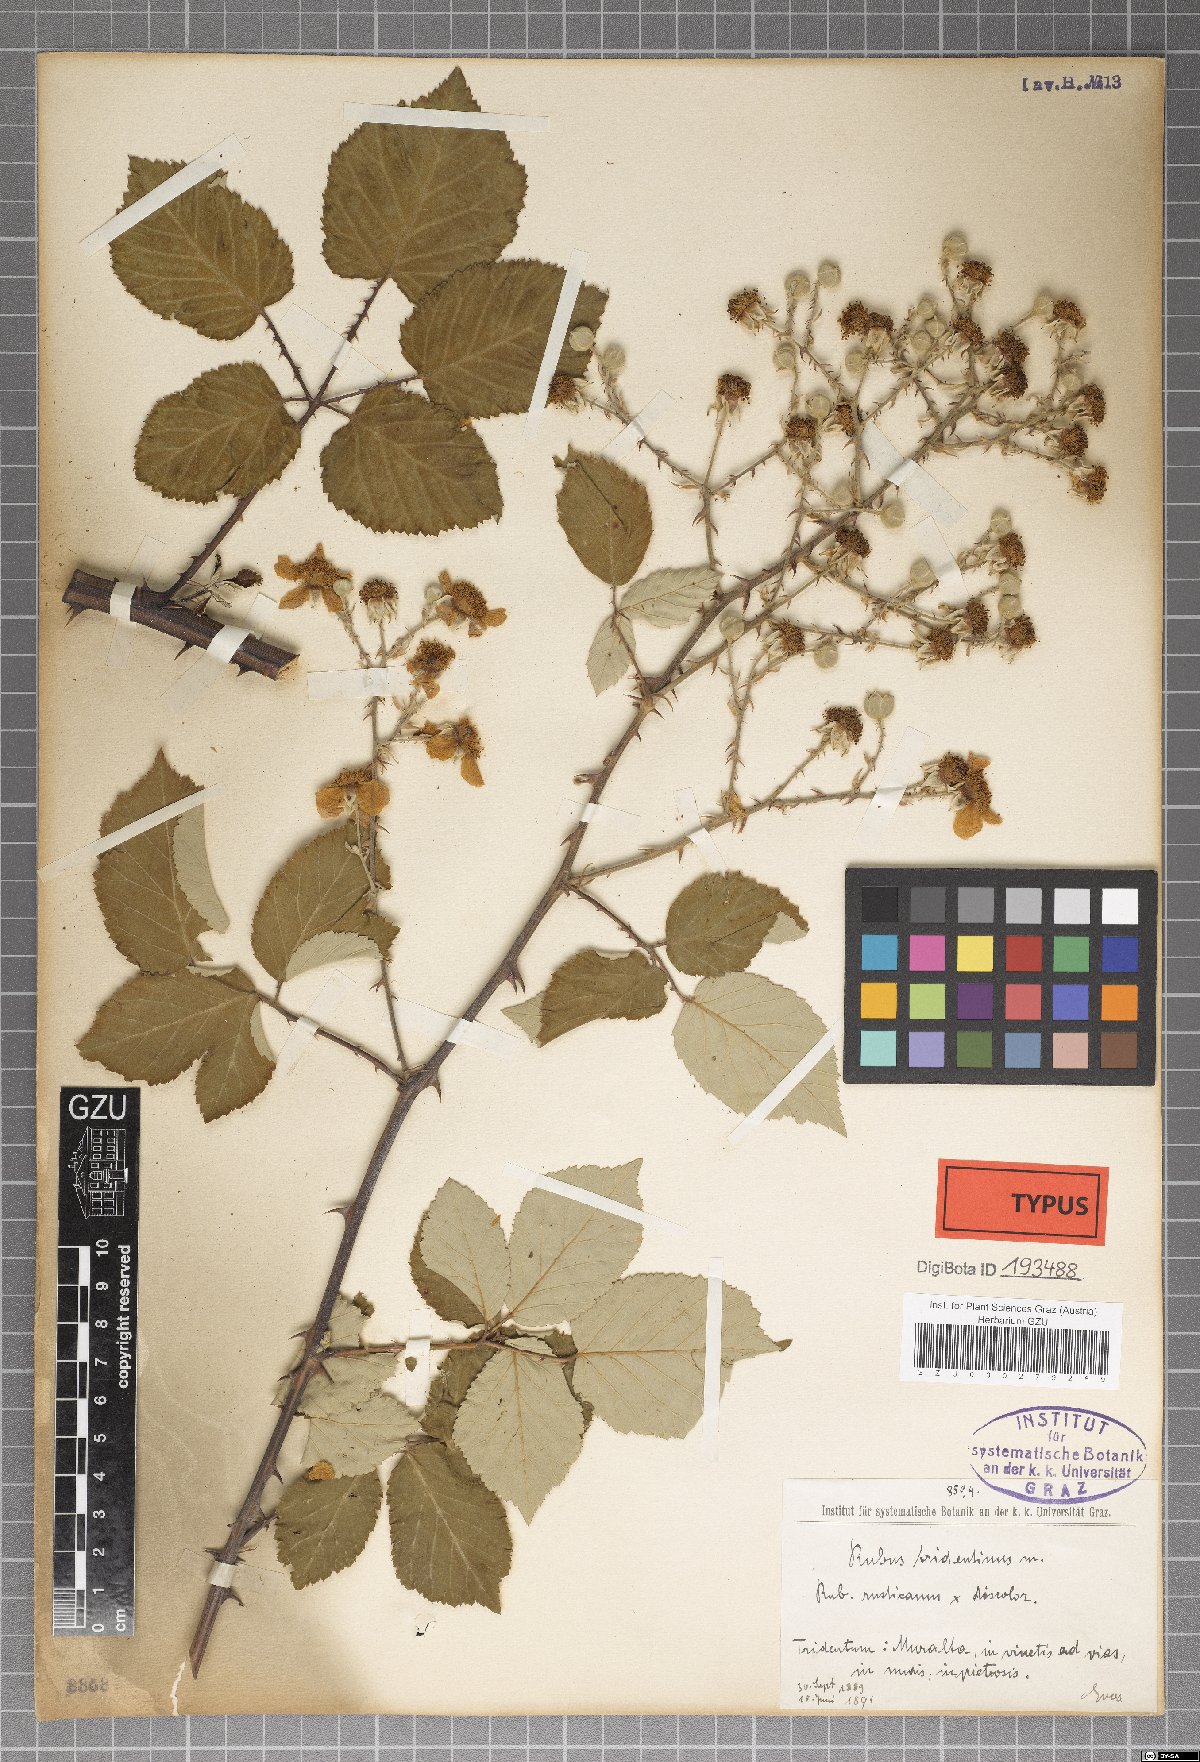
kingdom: Plantae
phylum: Tracheophyta
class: Magnoliopsida
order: Rosales
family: Rosaceae
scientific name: Rosaceae
